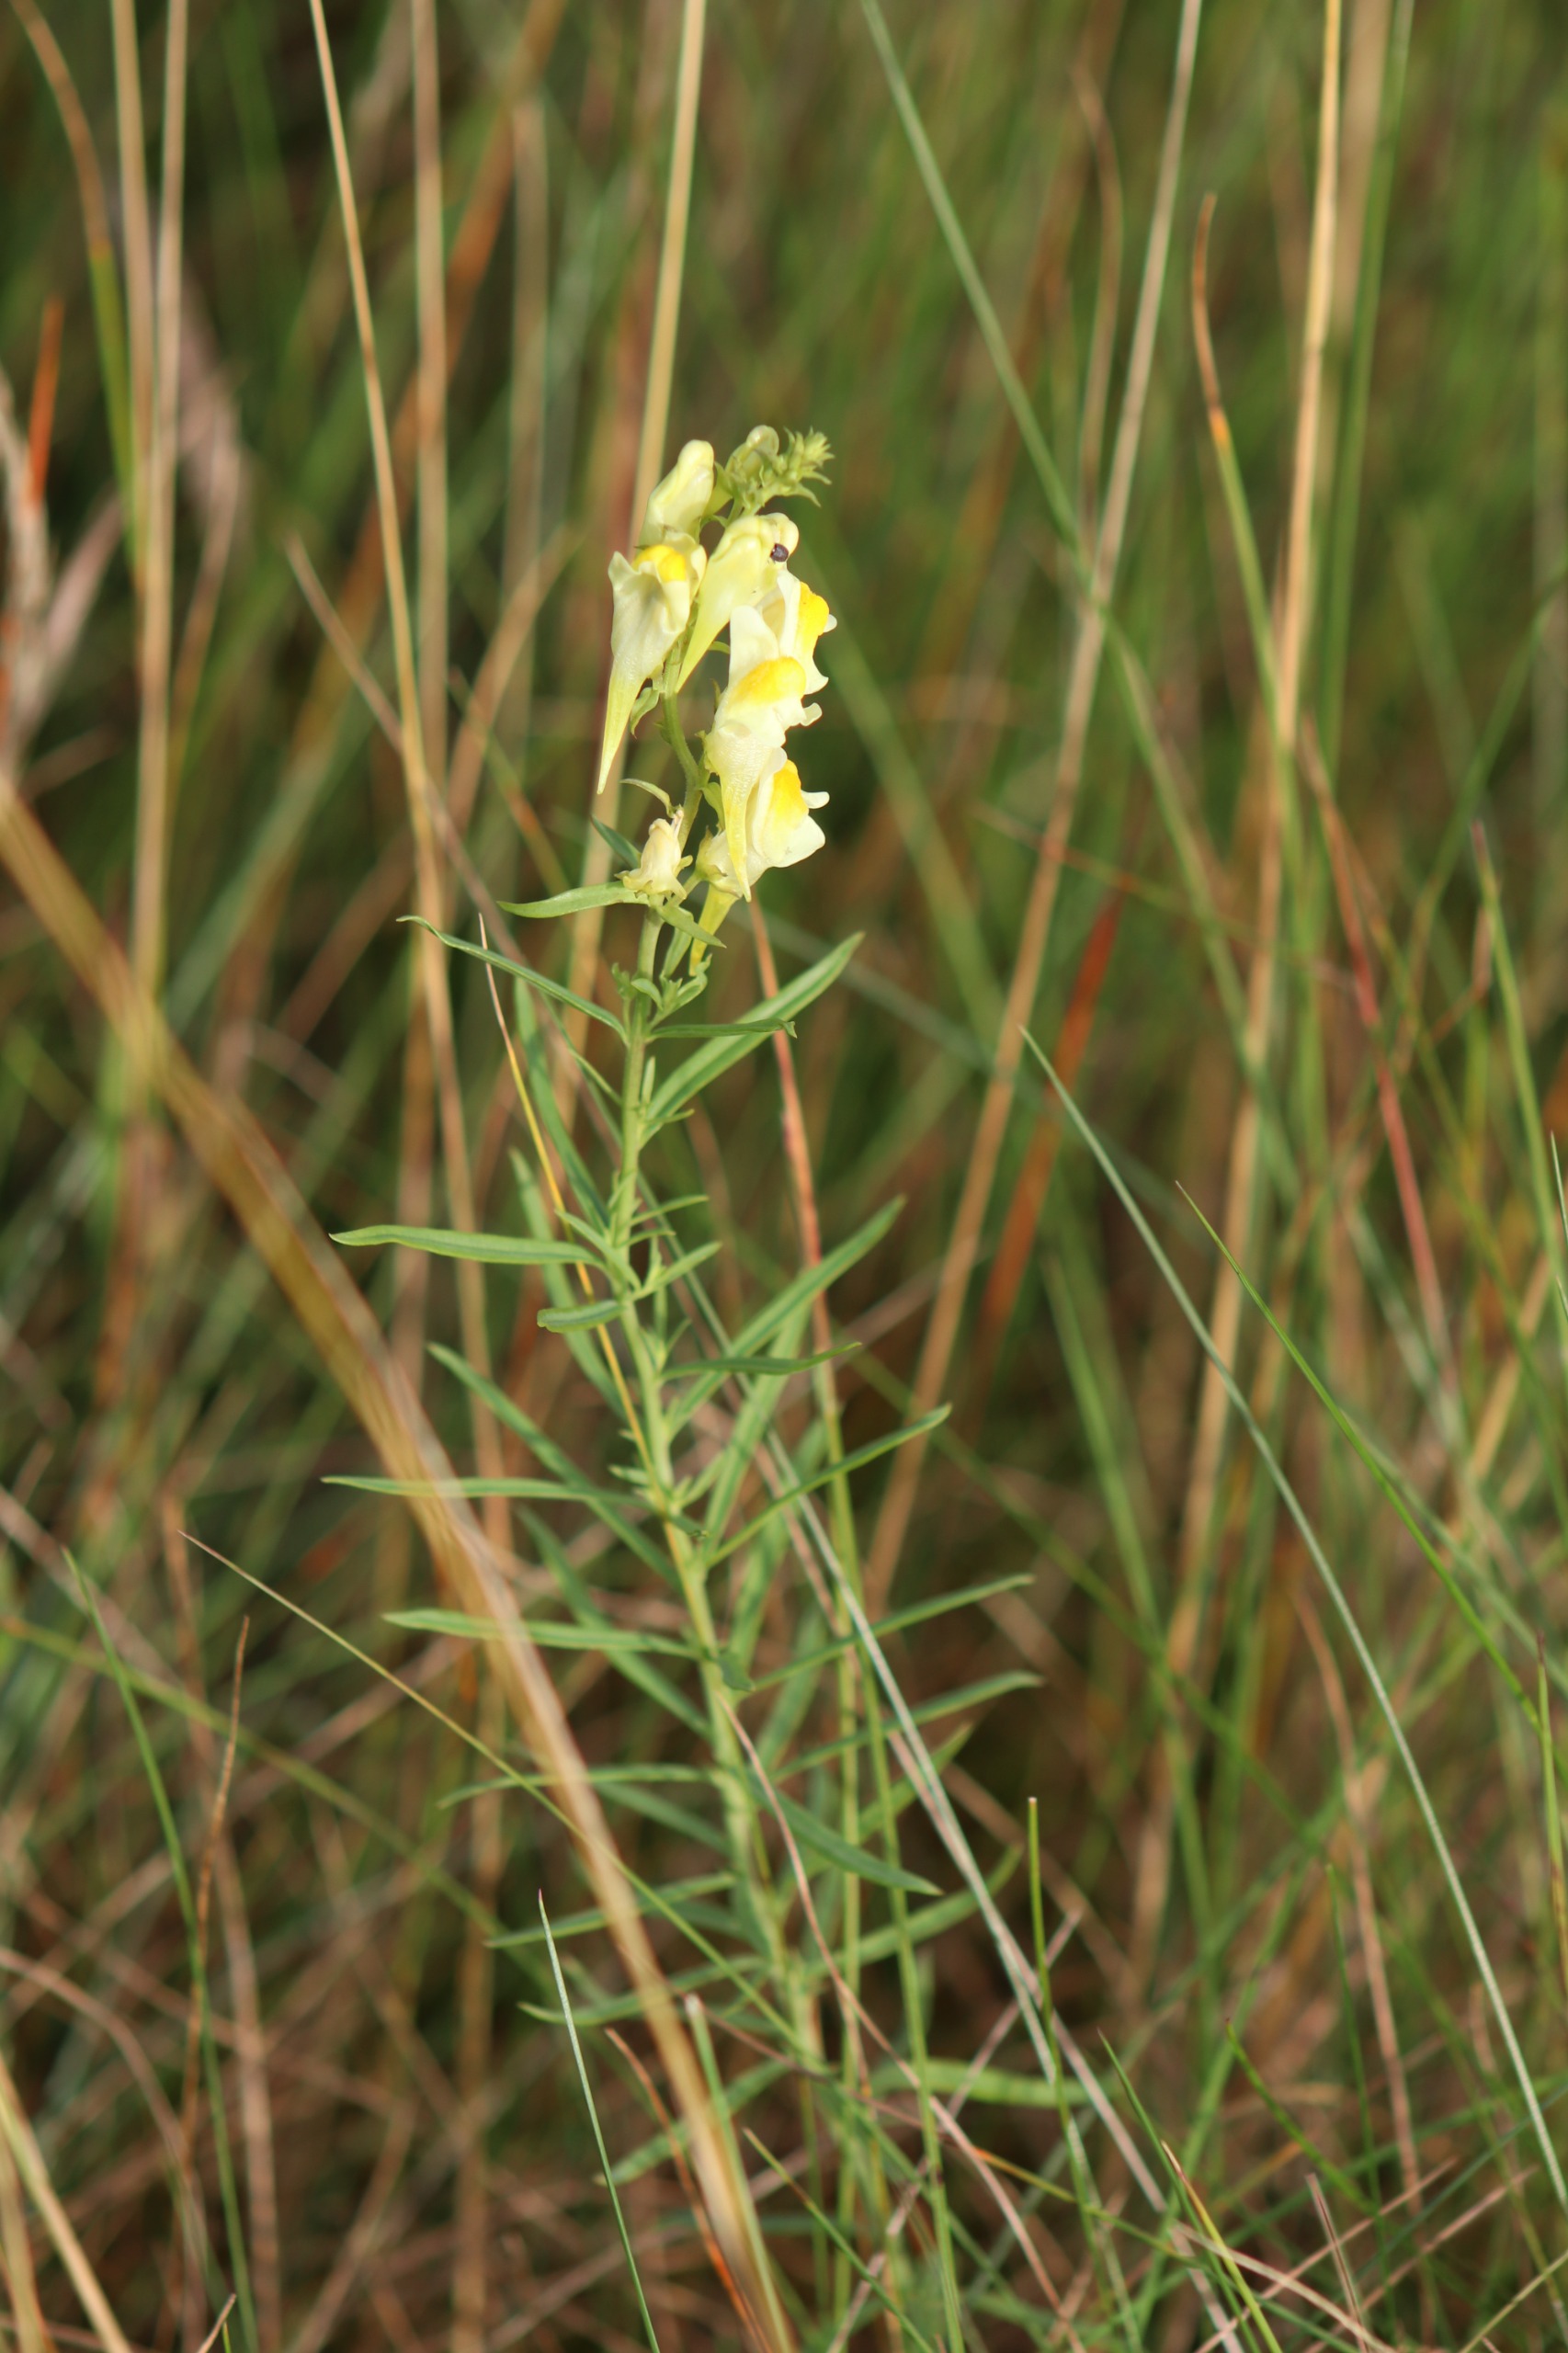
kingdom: Plantae
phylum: Tracheophyta
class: Magnoliopsida
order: Lamiales
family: Plantaginaceae
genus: Linaria
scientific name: Linaria vulgaris
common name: Almindelig torskemund
